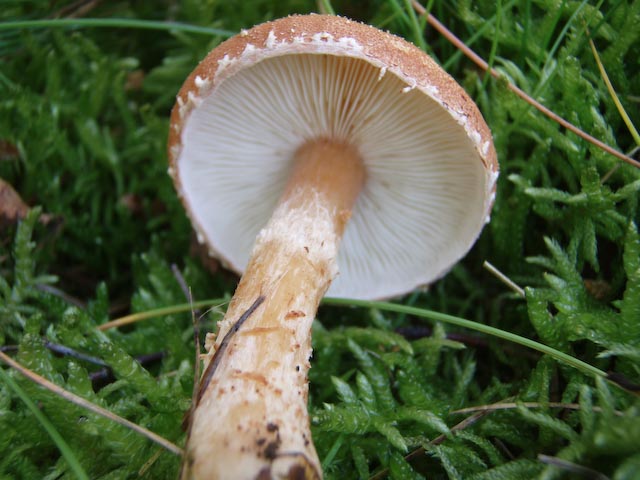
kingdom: Fungi
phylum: Basidiomycota
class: Agaricomycetes
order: Agaricales
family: Agaricaceae
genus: Cystodermella
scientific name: Cystodermella granulosa
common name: kliddet grynhat
